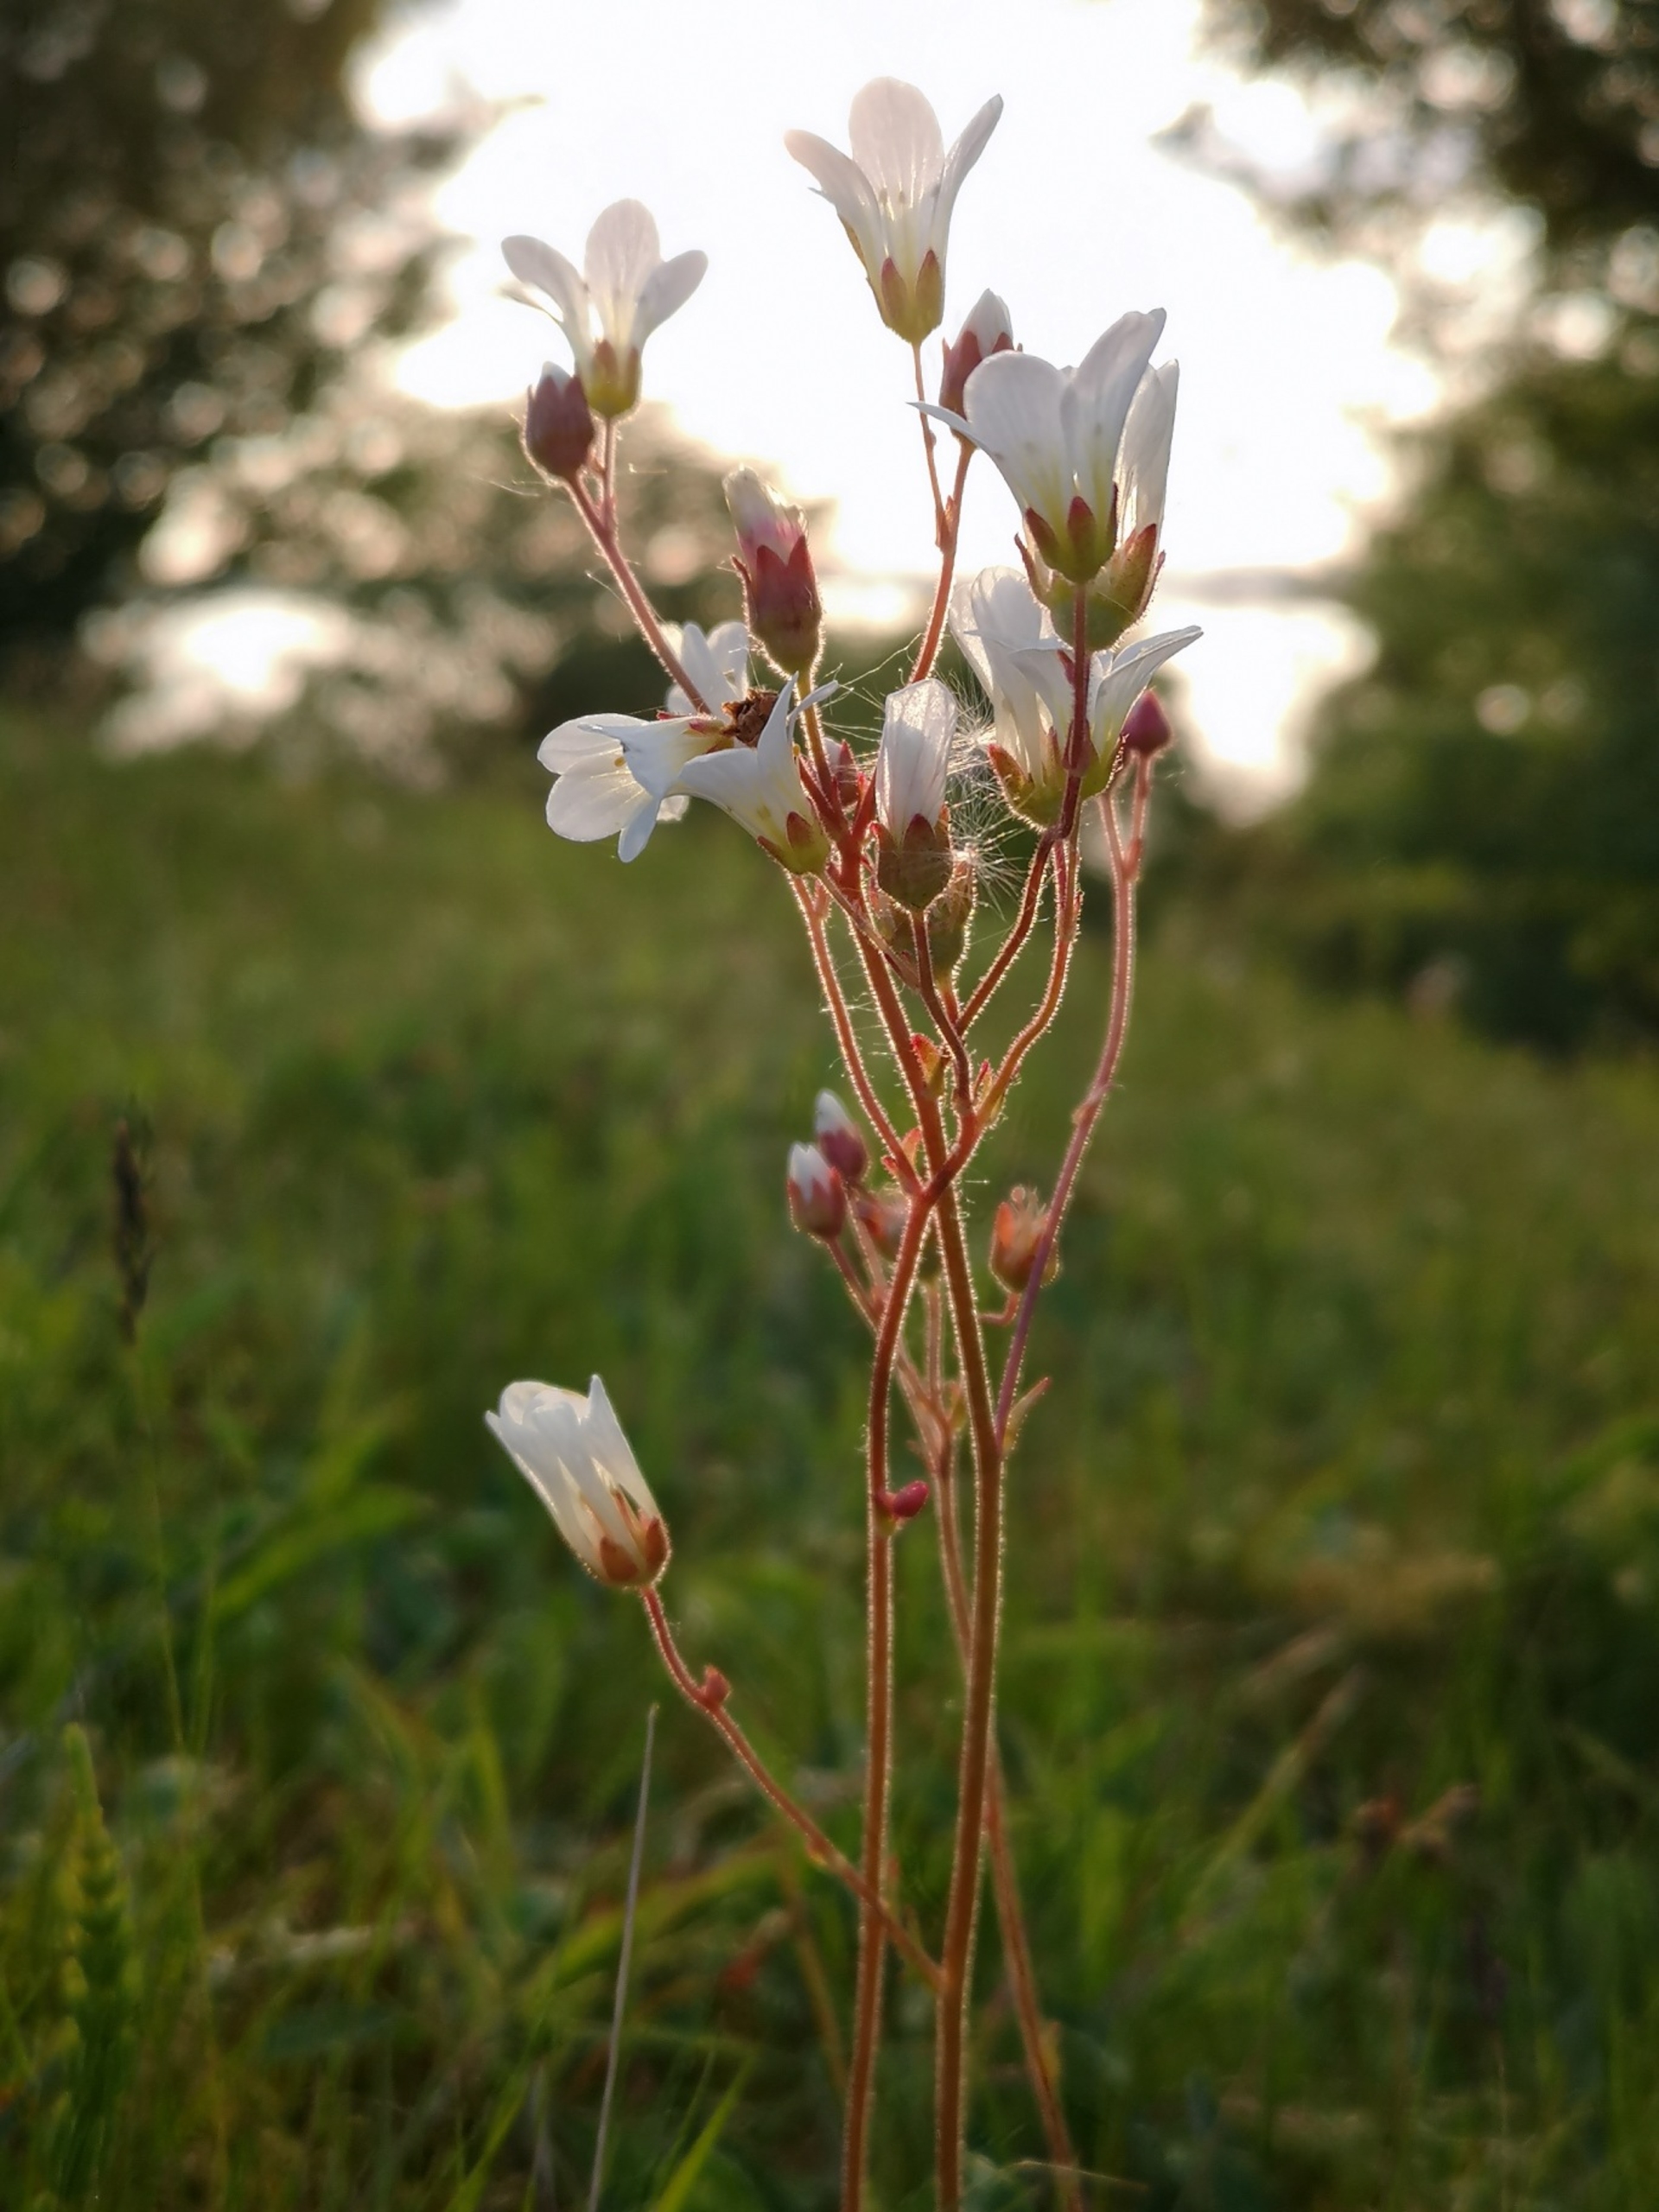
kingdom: Plantae
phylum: Tracheophyta
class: Magnoliopsida
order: Saxifragales
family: Saxifragaceae
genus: Saxifraga
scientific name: Saxifraga granulata
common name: Kornet stenbræk
